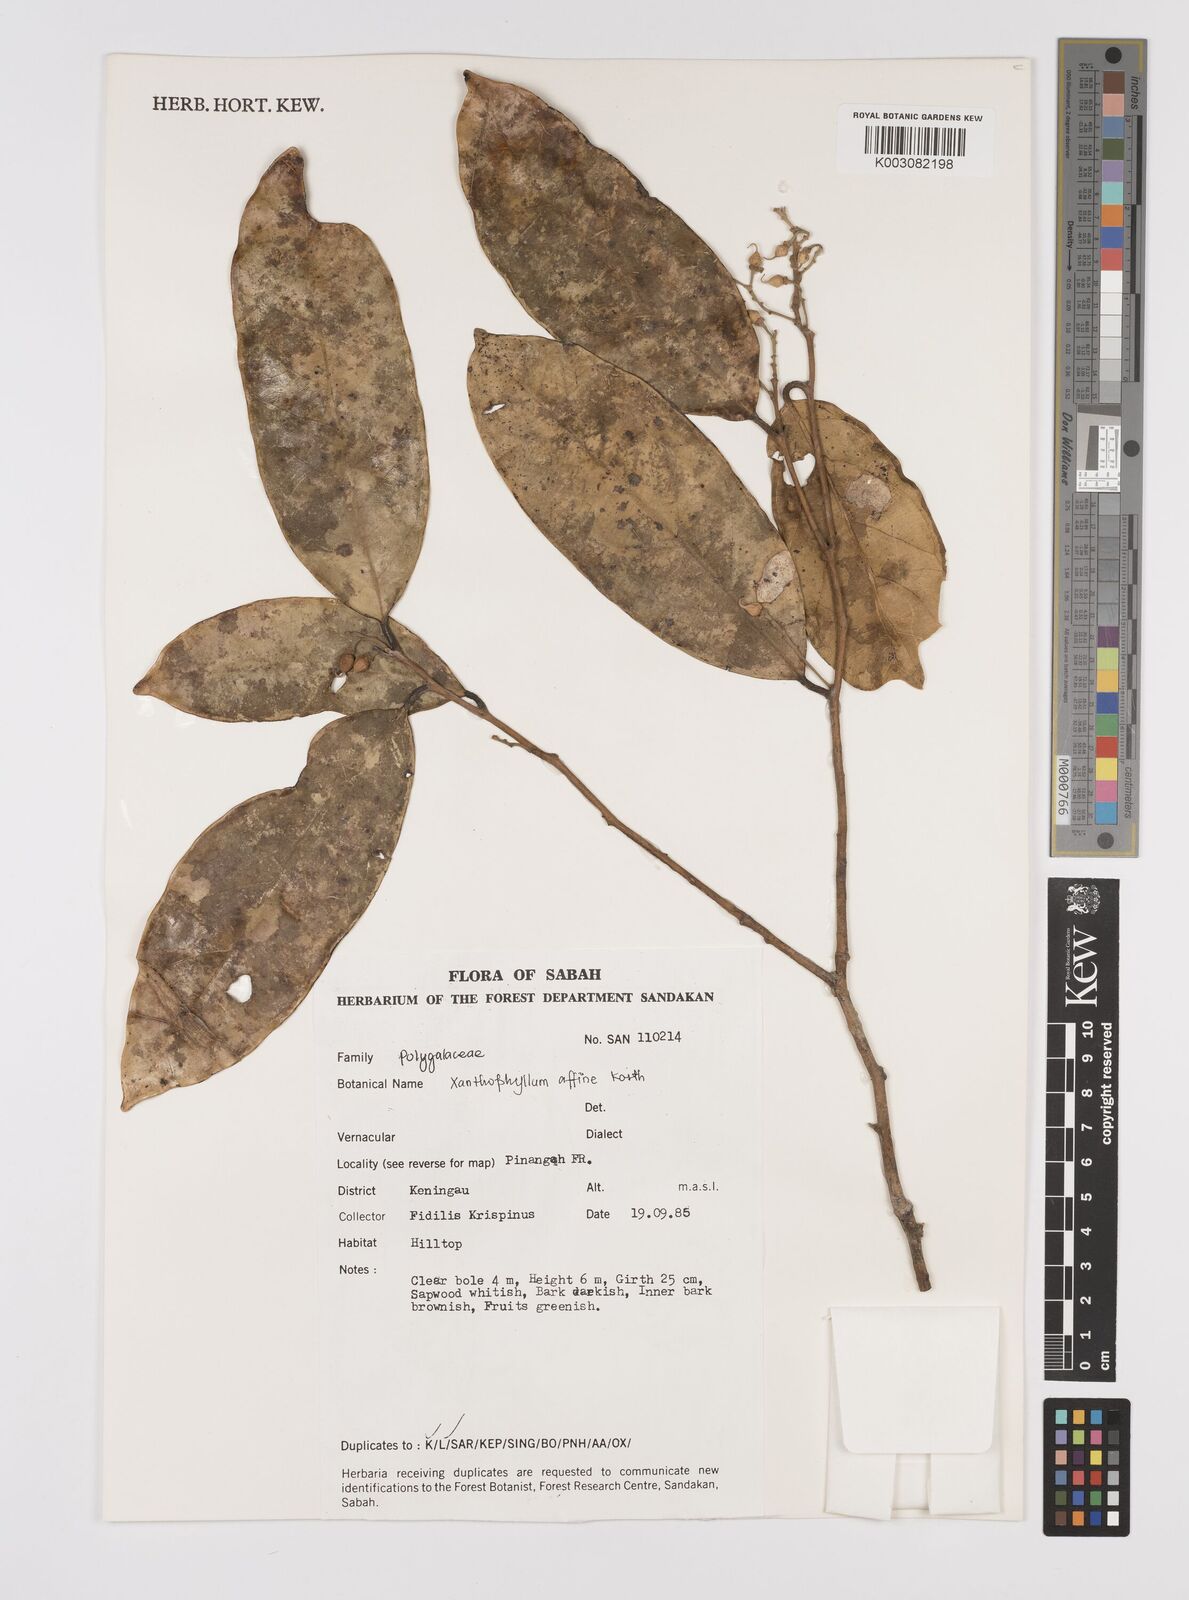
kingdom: Plantae
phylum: Tracheophyta
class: Magnoliopsida
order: Fabales
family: Polygalaceae
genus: Xanthophyllum
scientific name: Xanthophyllum flavescens
